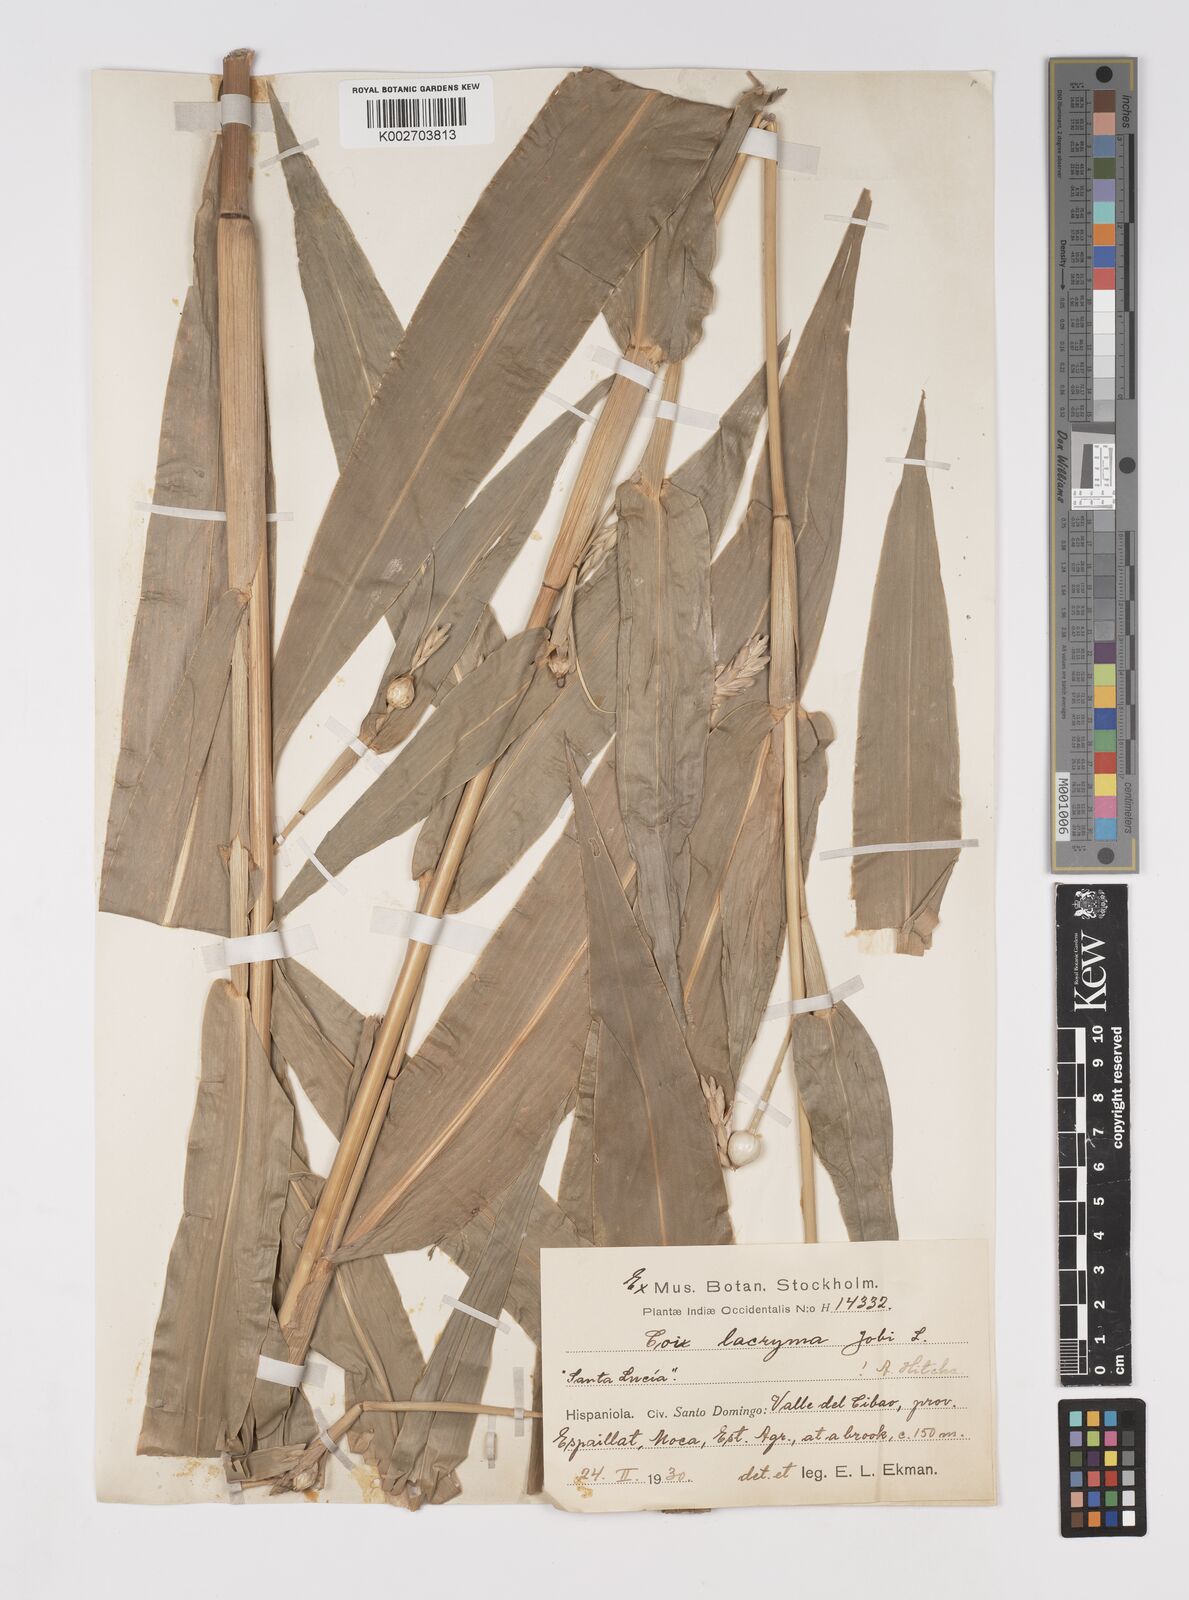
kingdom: Plantae
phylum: Tracheophyta
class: Liliopsida
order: Poales
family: Poaceae
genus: Coix
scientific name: Coix lacryma-jobi
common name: Job's tears
